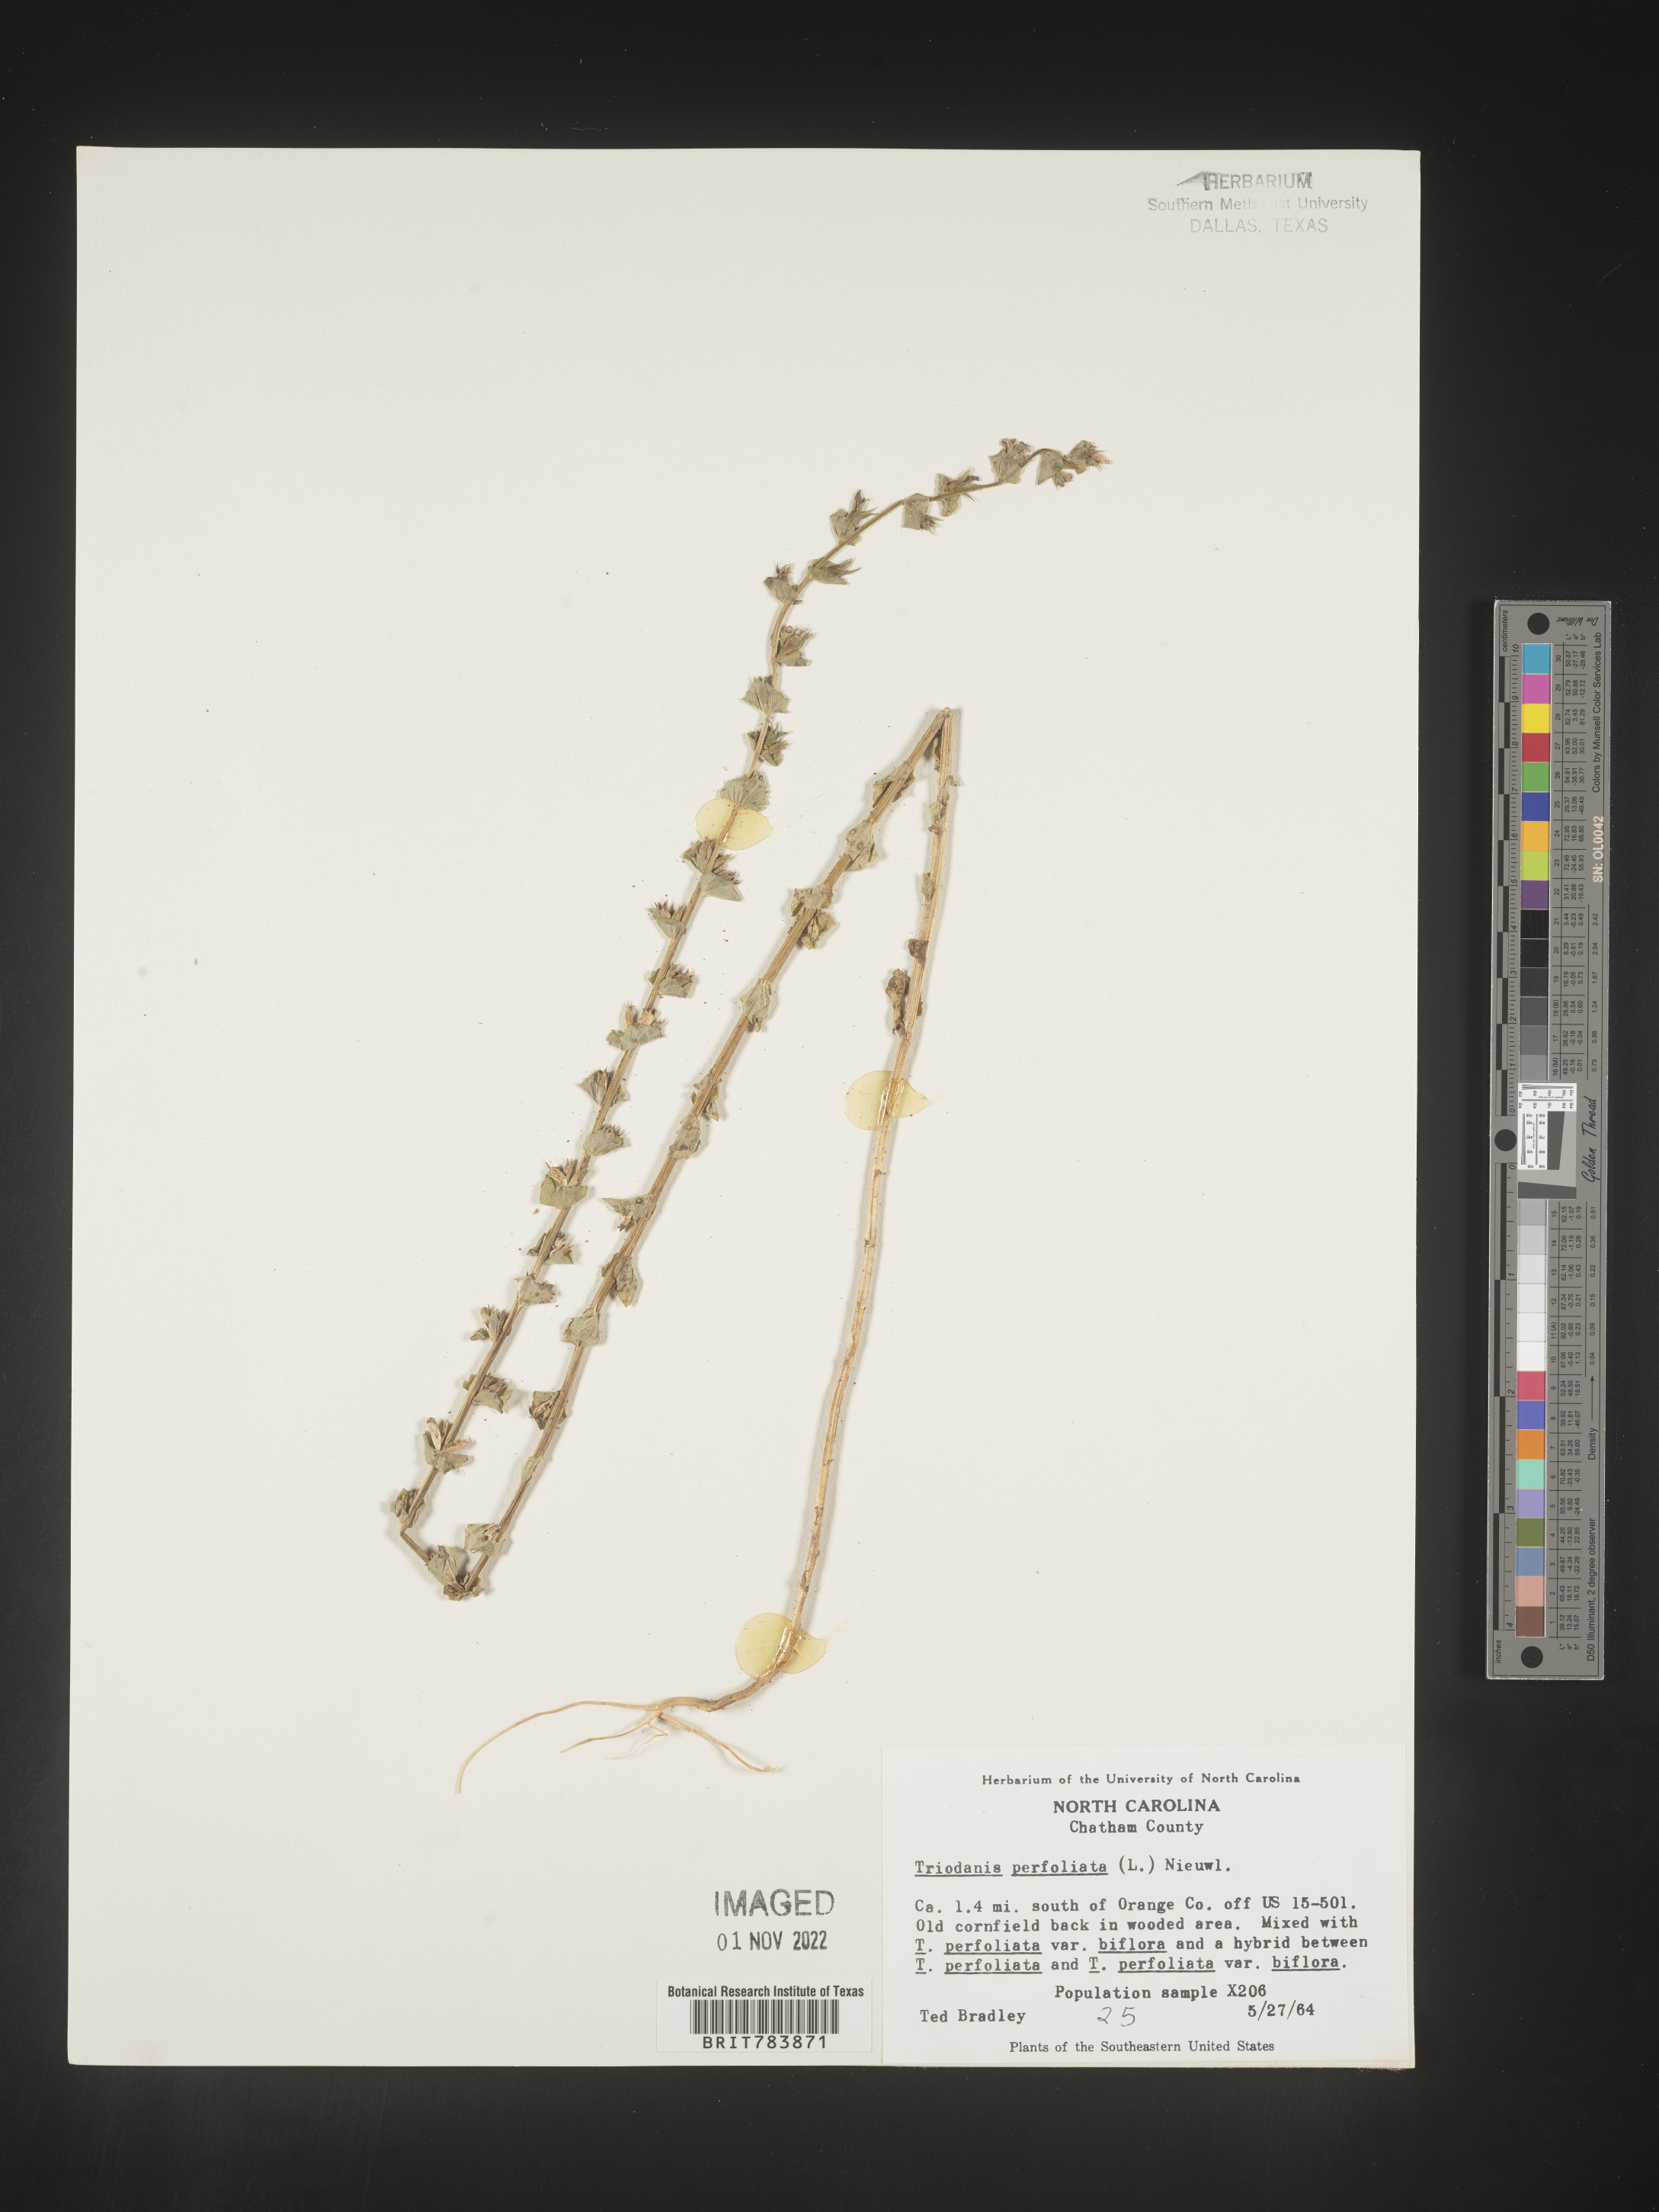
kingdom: Plantae
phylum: Tracheophyta
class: Magnoliopsida
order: Asterales
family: Campanulaceae
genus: Triodanis
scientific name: Triodanis perfoliata
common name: Clasping venus' looking-glass
